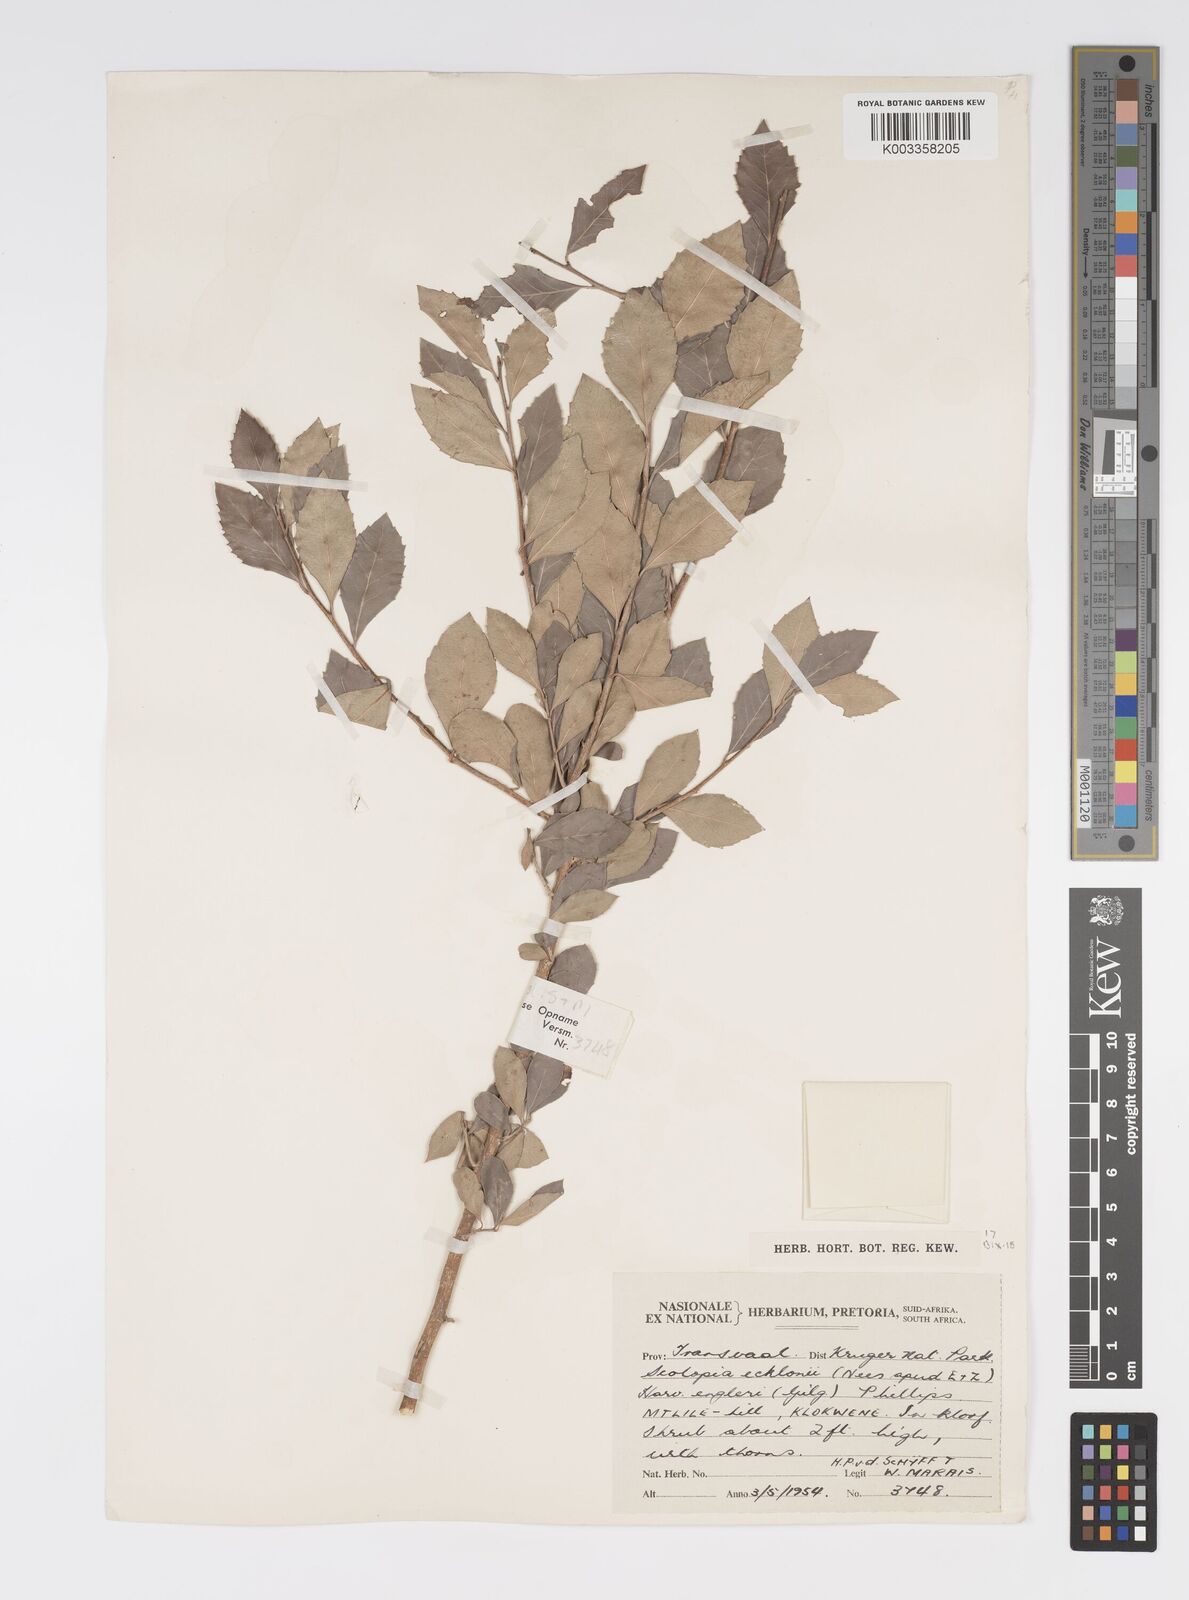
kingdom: Plantae
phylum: Tracheophyta
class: Magnoliopsida
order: Malpighiales
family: Salicaceae
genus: Scolopia
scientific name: Scolopia zeyheri
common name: Thorn pear
